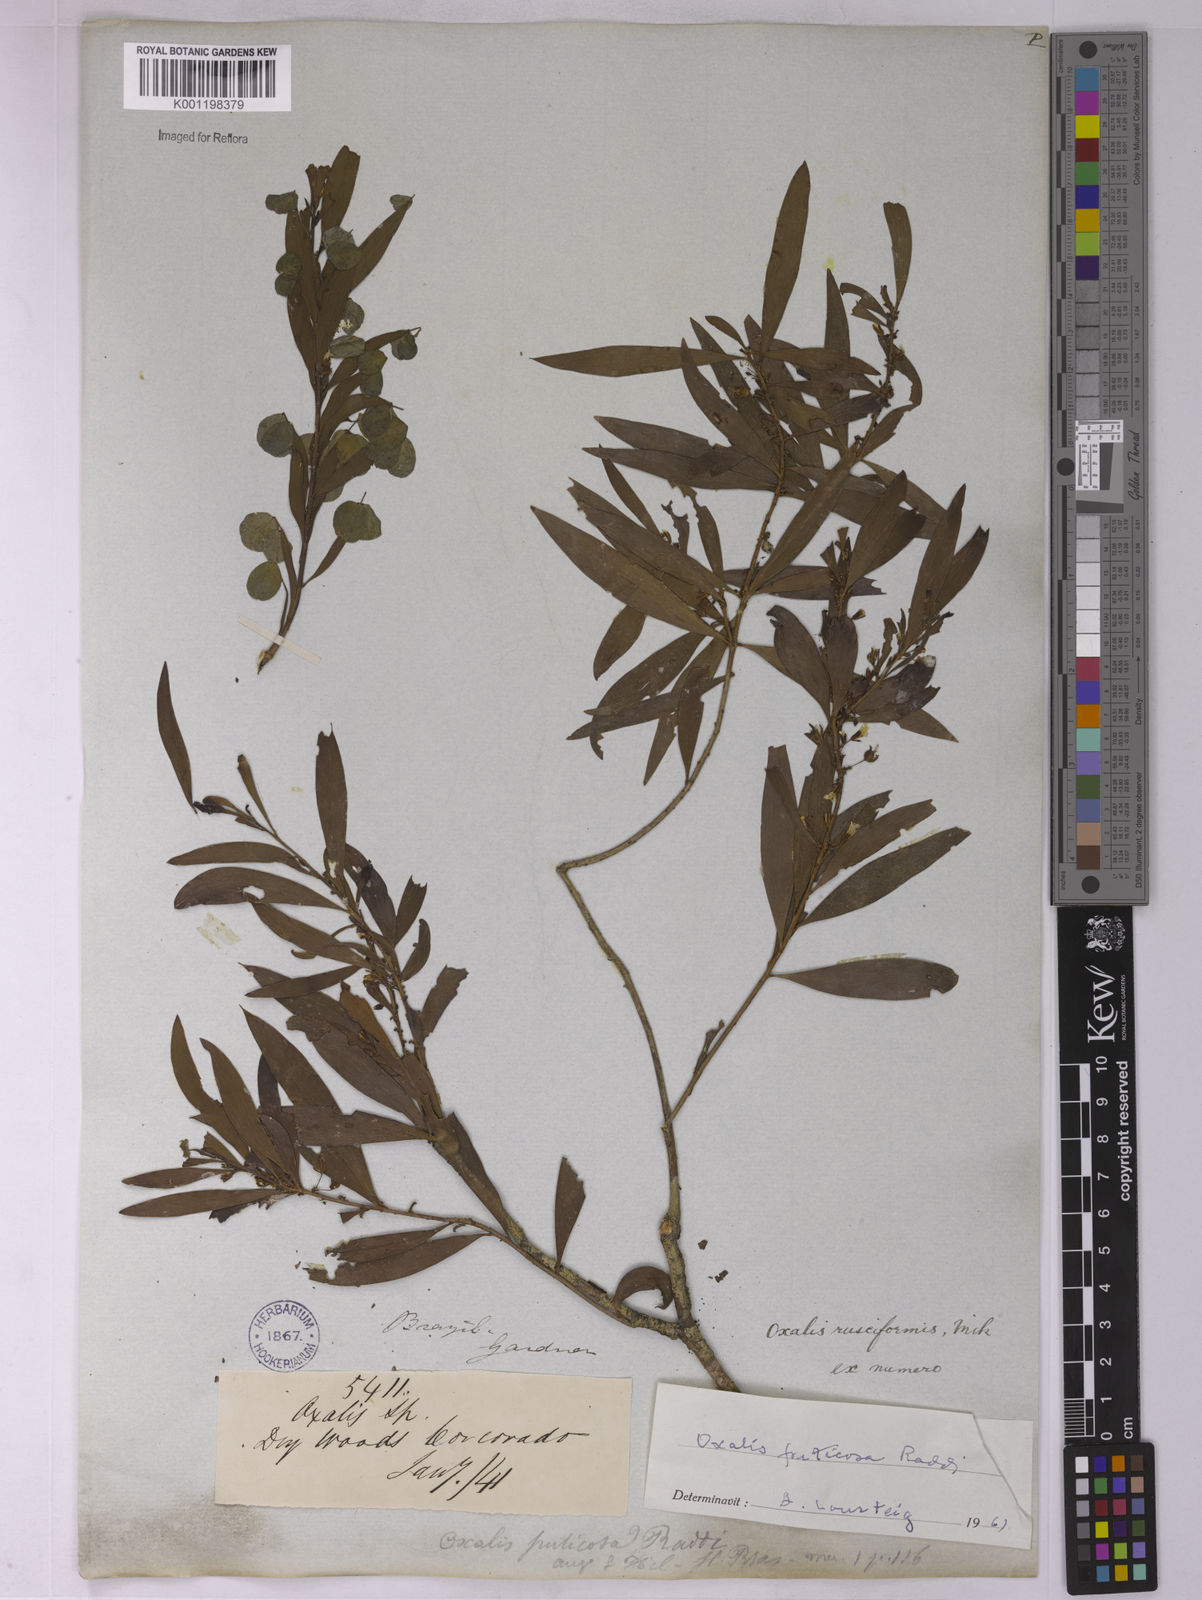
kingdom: Plantae
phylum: Tracheophyta
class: Magnoliopsida
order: Oxalidales
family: Oxalidaceae
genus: Oxalis
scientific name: Oxalis fruticosa
